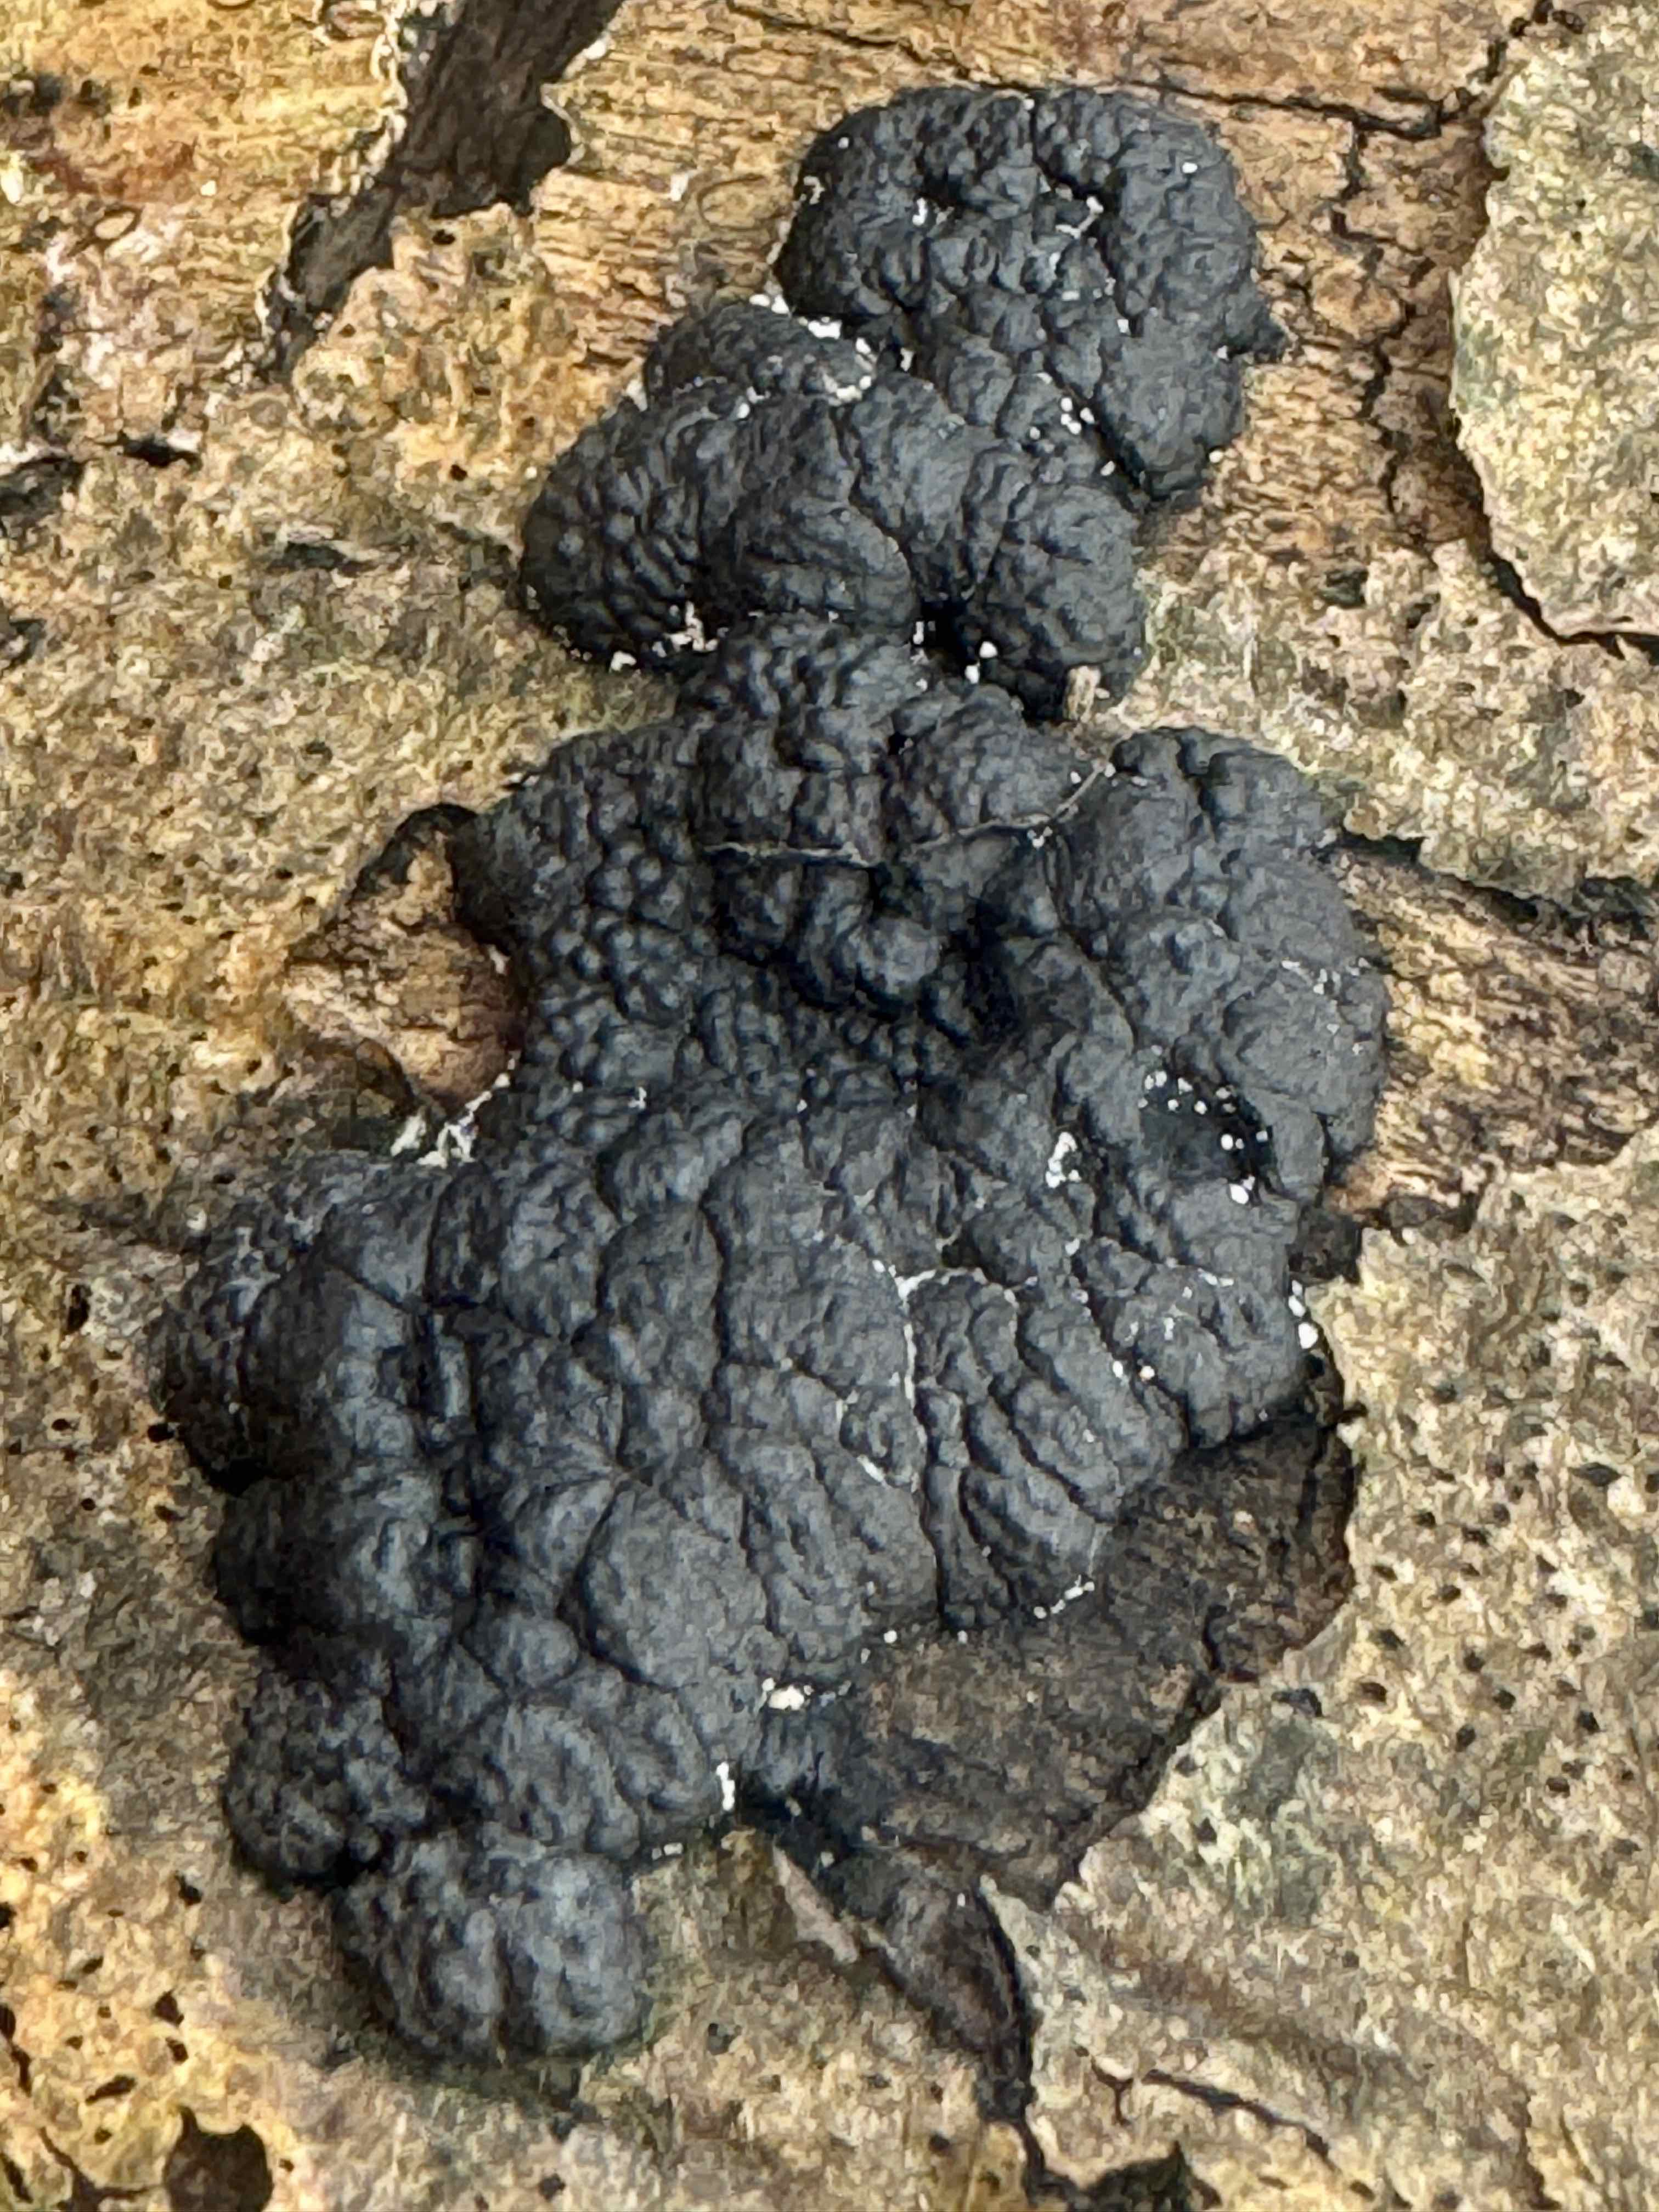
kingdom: Fungi
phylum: Ascomycota
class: Sordariomycetes
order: Xylariales
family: Hypoxylaceae
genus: Jackrogersella
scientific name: Jackrogersella cohaerens
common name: sammenflydende kulbær
